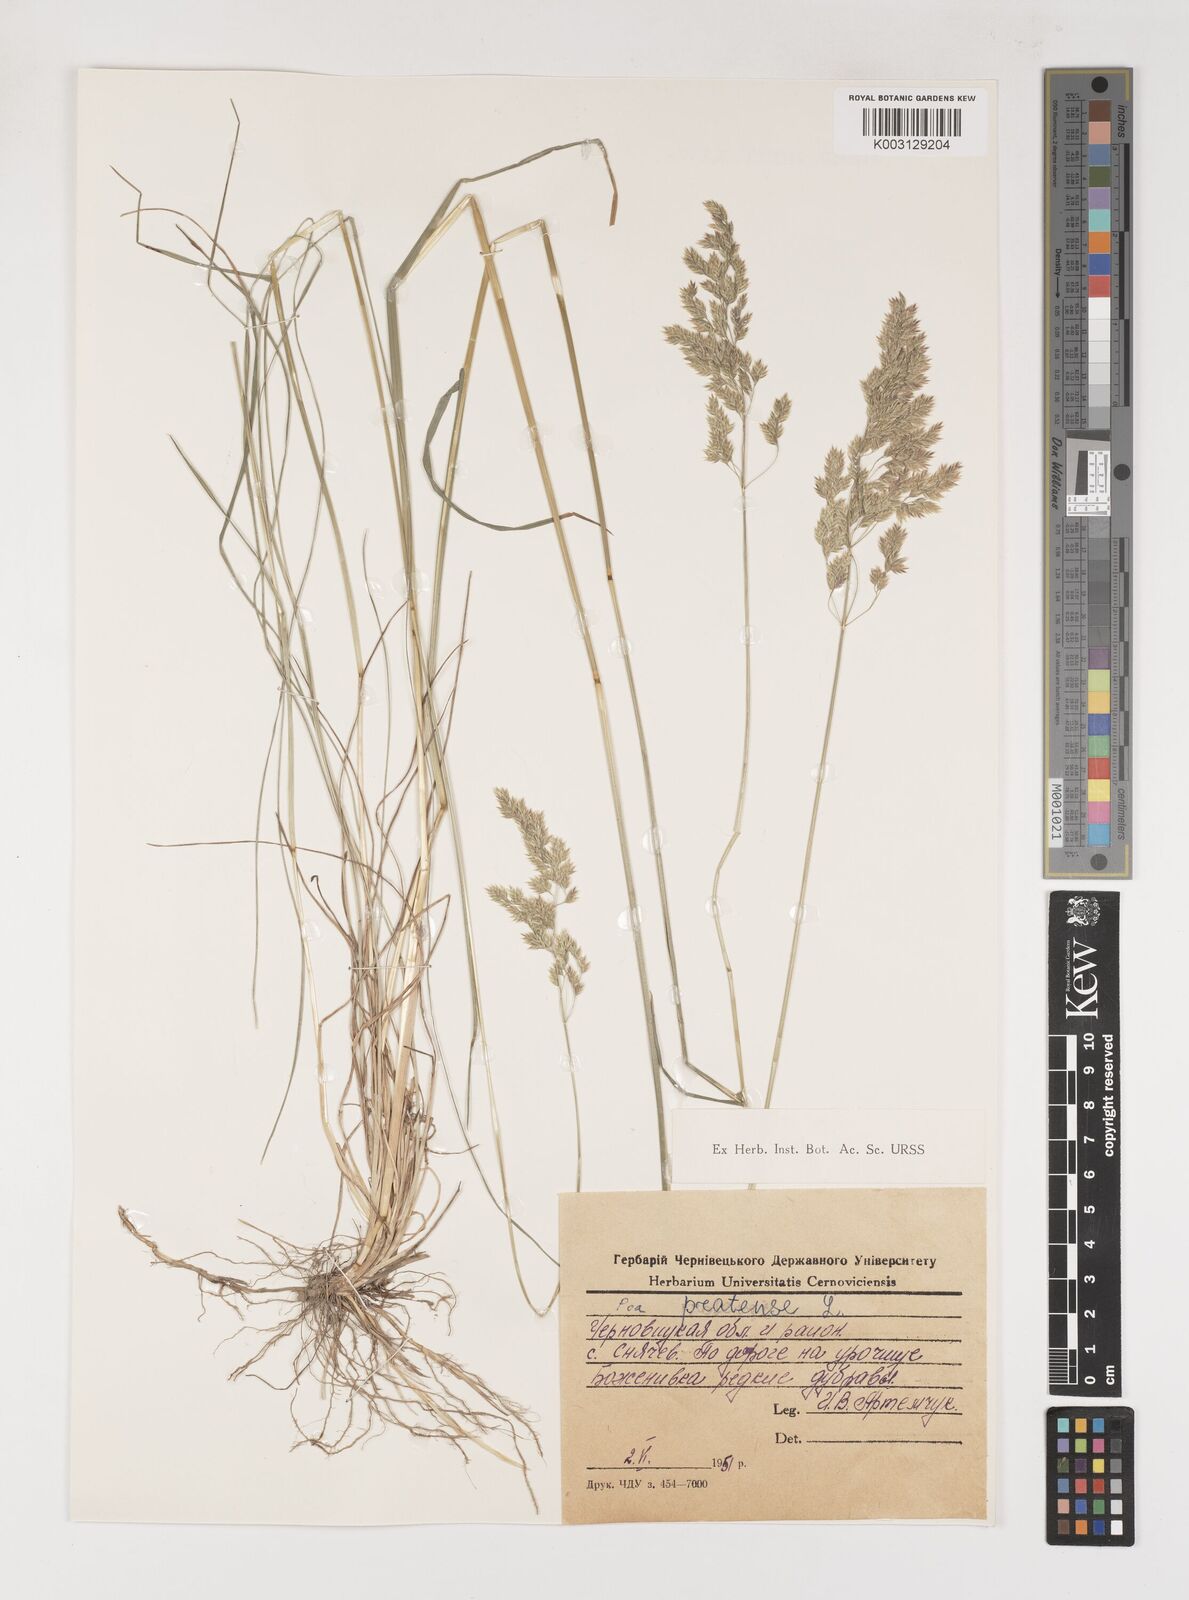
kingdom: Plantae
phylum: Tracheophyta
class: Liliopsida
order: Poales
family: Poaceae
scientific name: Poaceae
